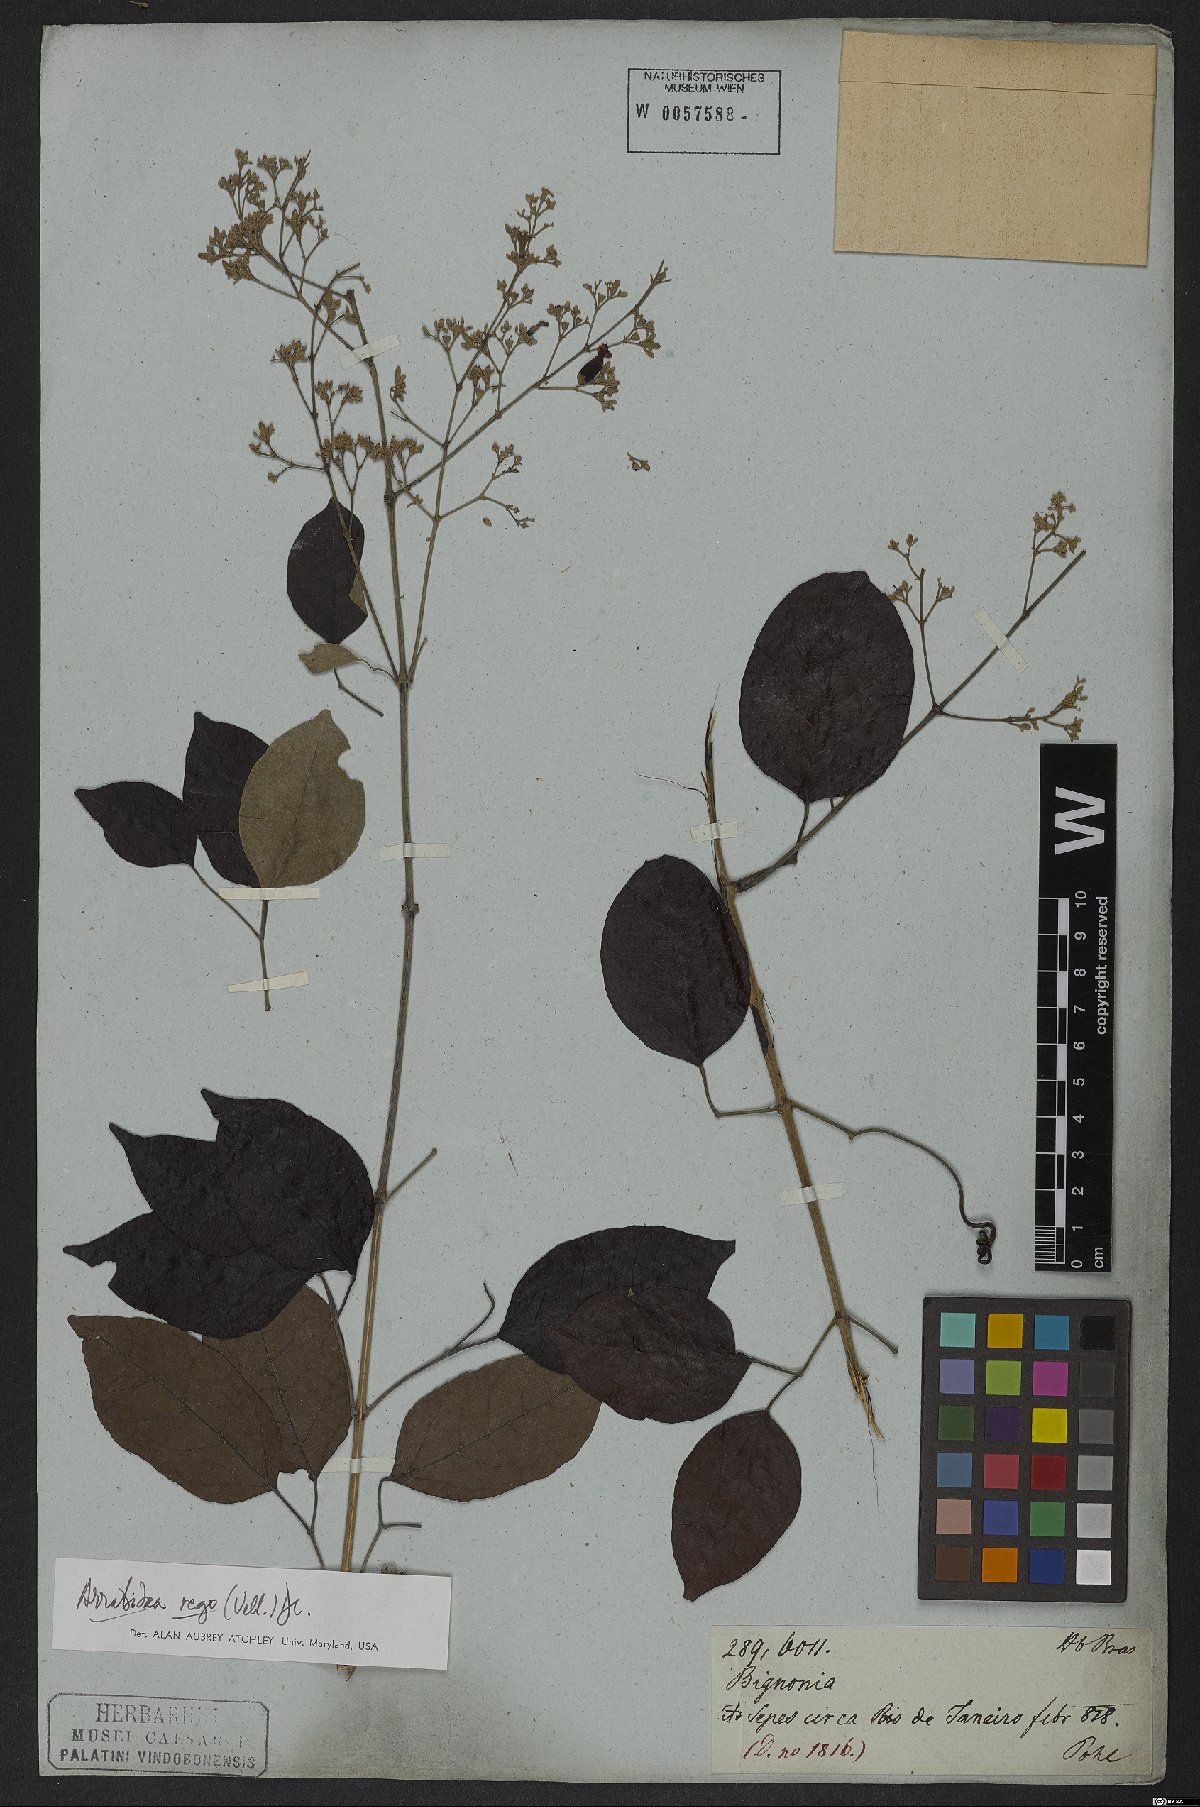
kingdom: Plantae
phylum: Tracheophyta
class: Magnoliopsida
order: Lamiales
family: Bignoniaceae
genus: Fridericia
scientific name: Fridericia rego
